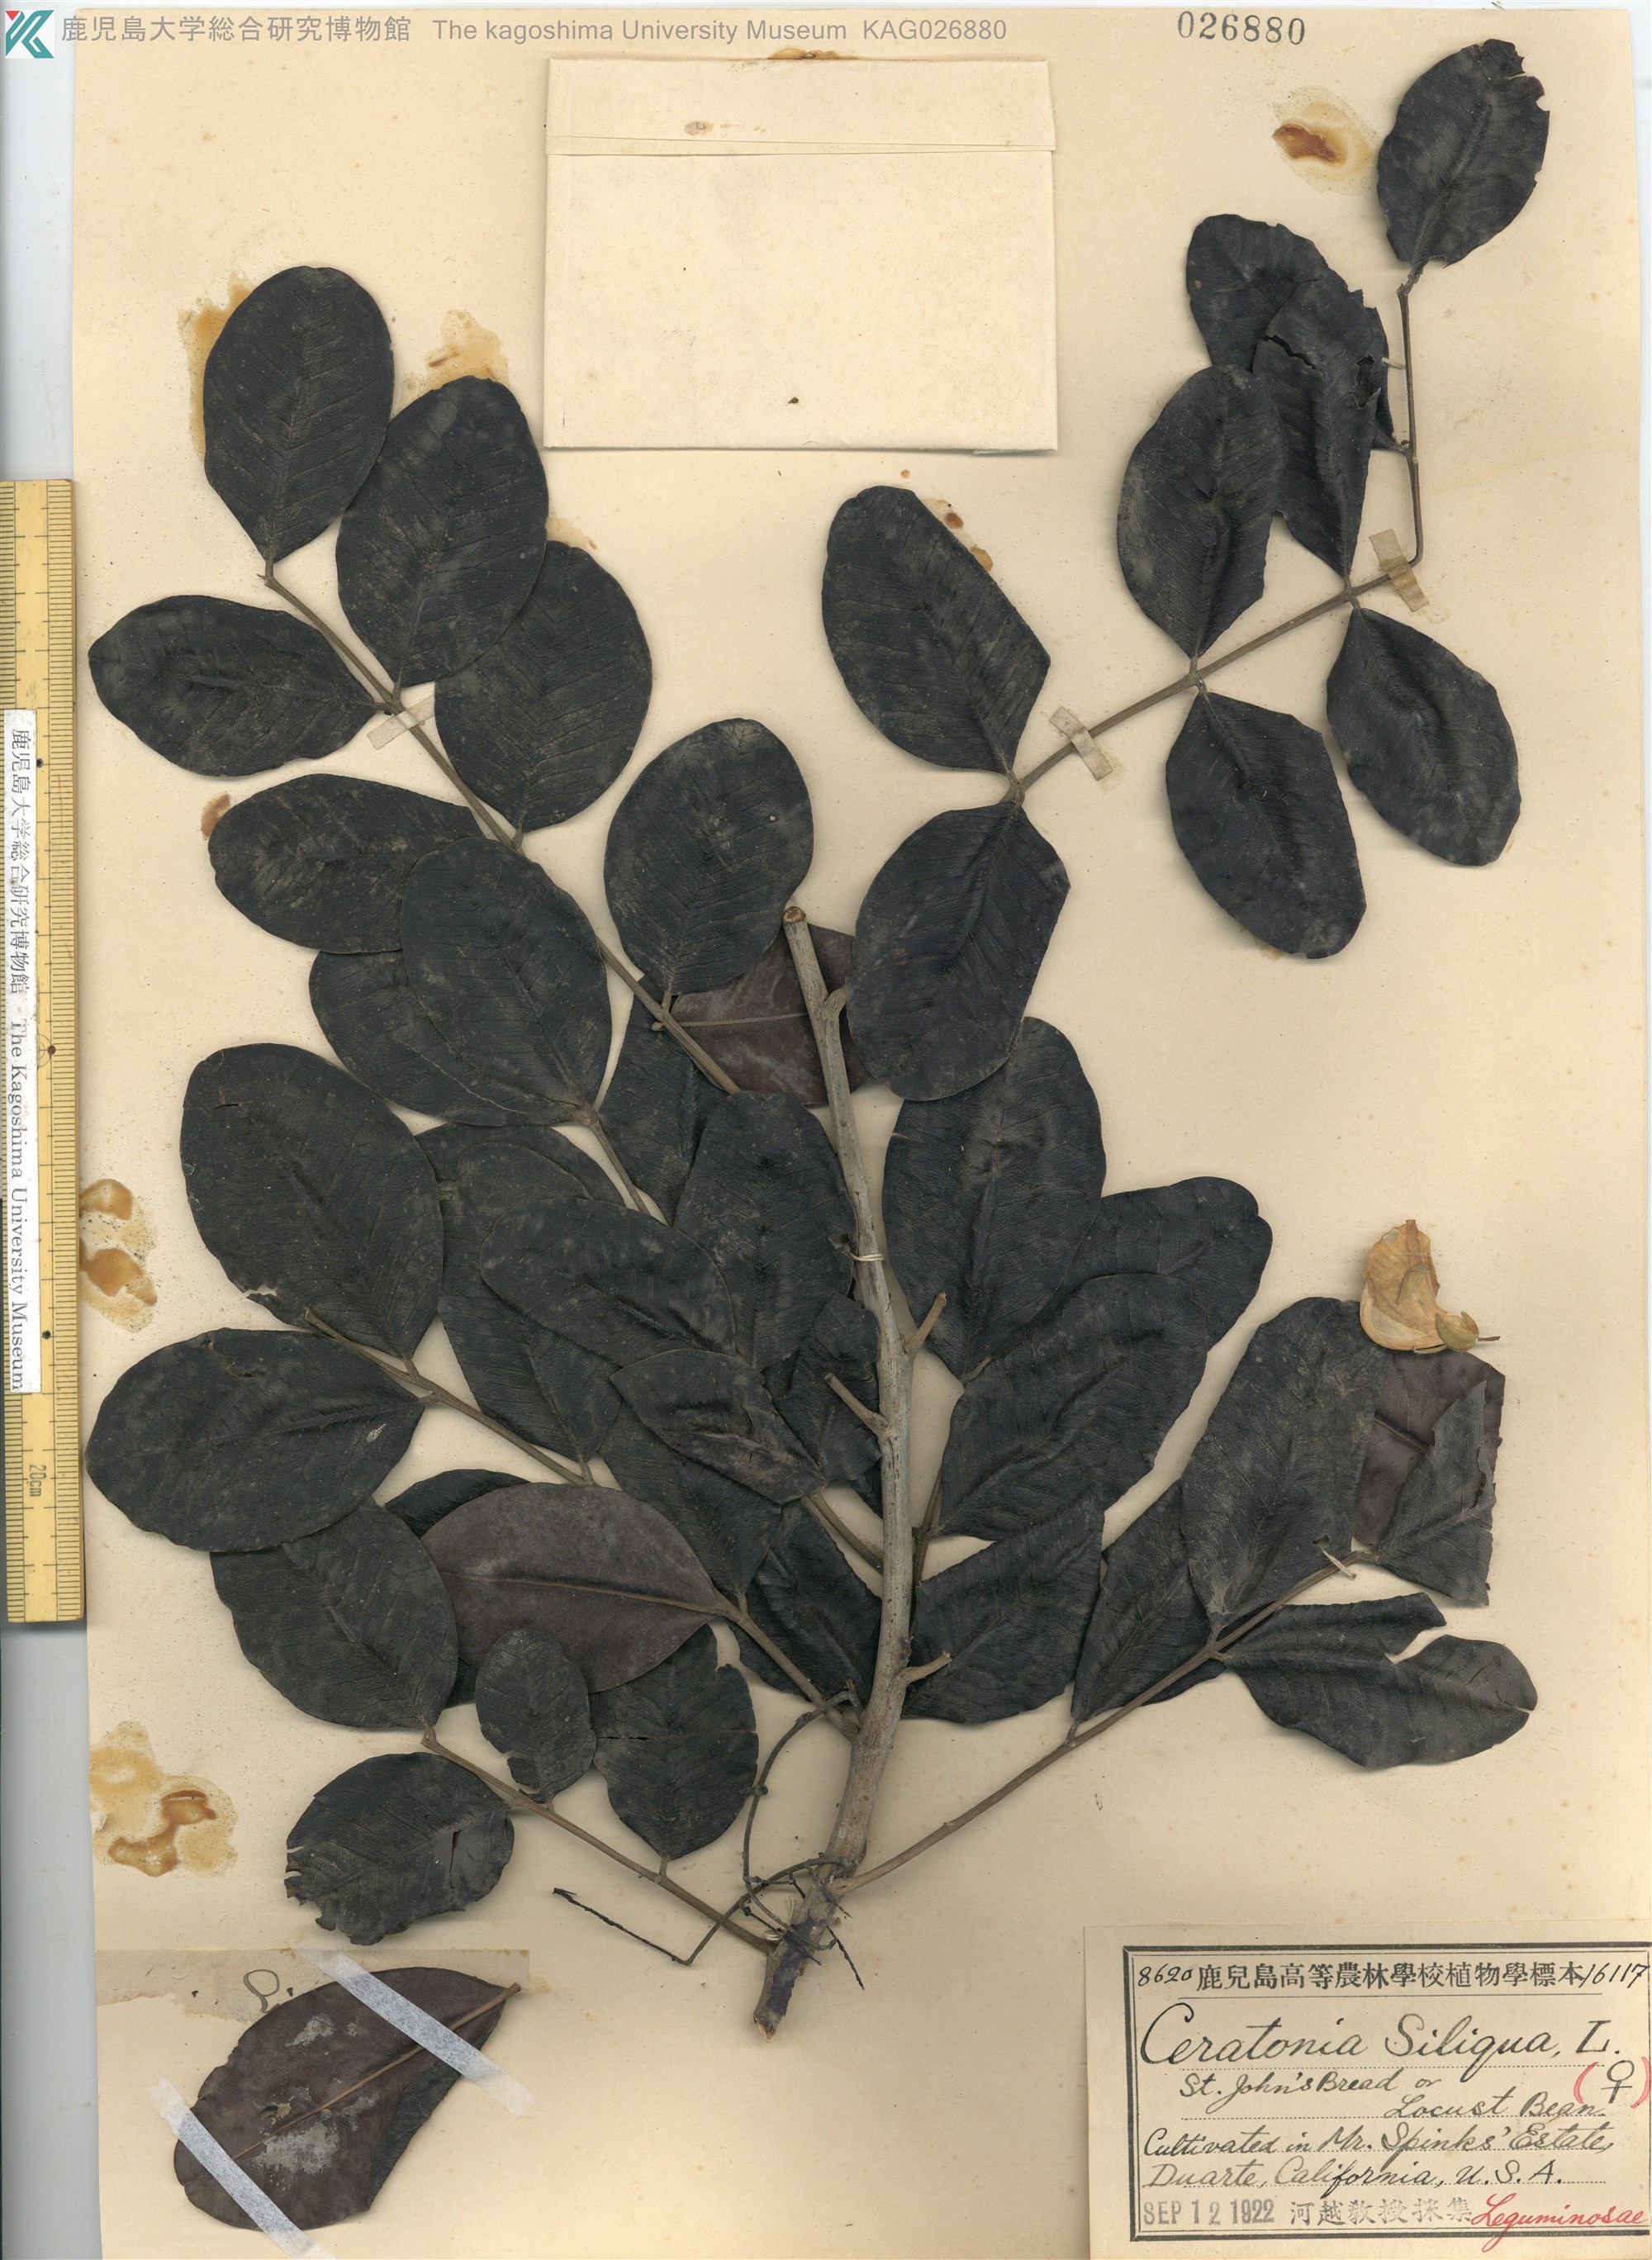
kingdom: Plantae
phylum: Tracheophyta
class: Magnoliopsida
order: Fabales
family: Fabaceae
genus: Ceratonia
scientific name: Ceratonia siliqua
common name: Carob
